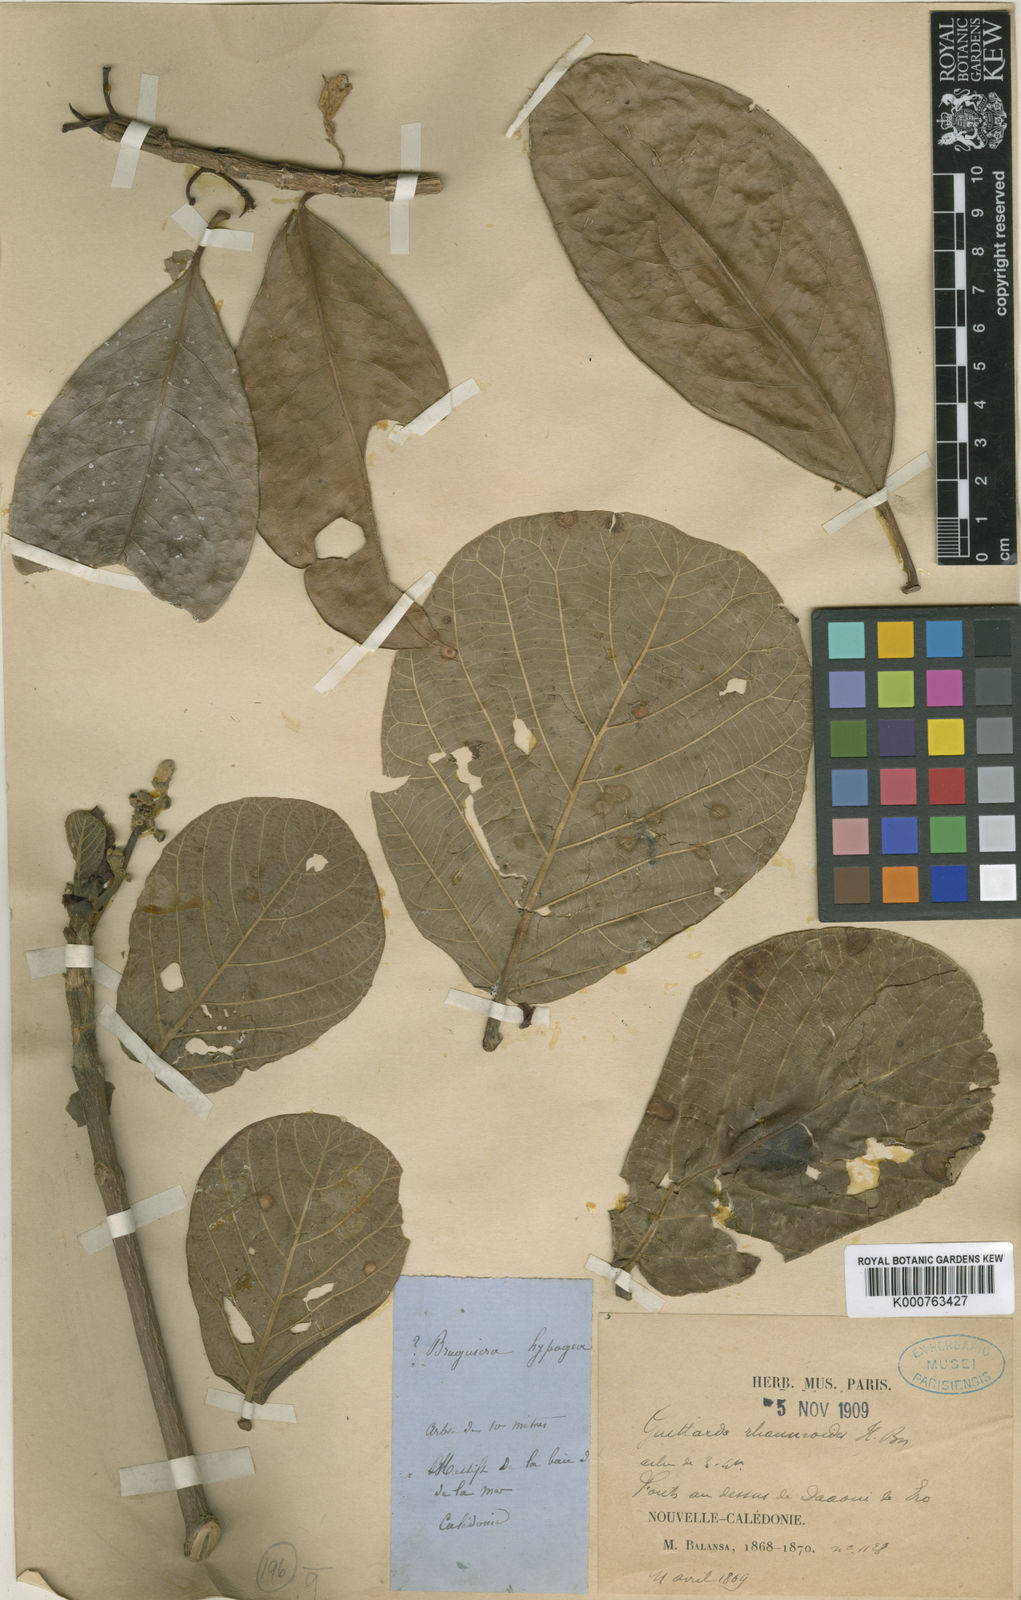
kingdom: Plantae
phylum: Tracheophyta
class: Magnoliopsida
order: Gentianales
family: Rubiaceae
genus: Guettardella
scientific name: Guettardella rhamnoides
